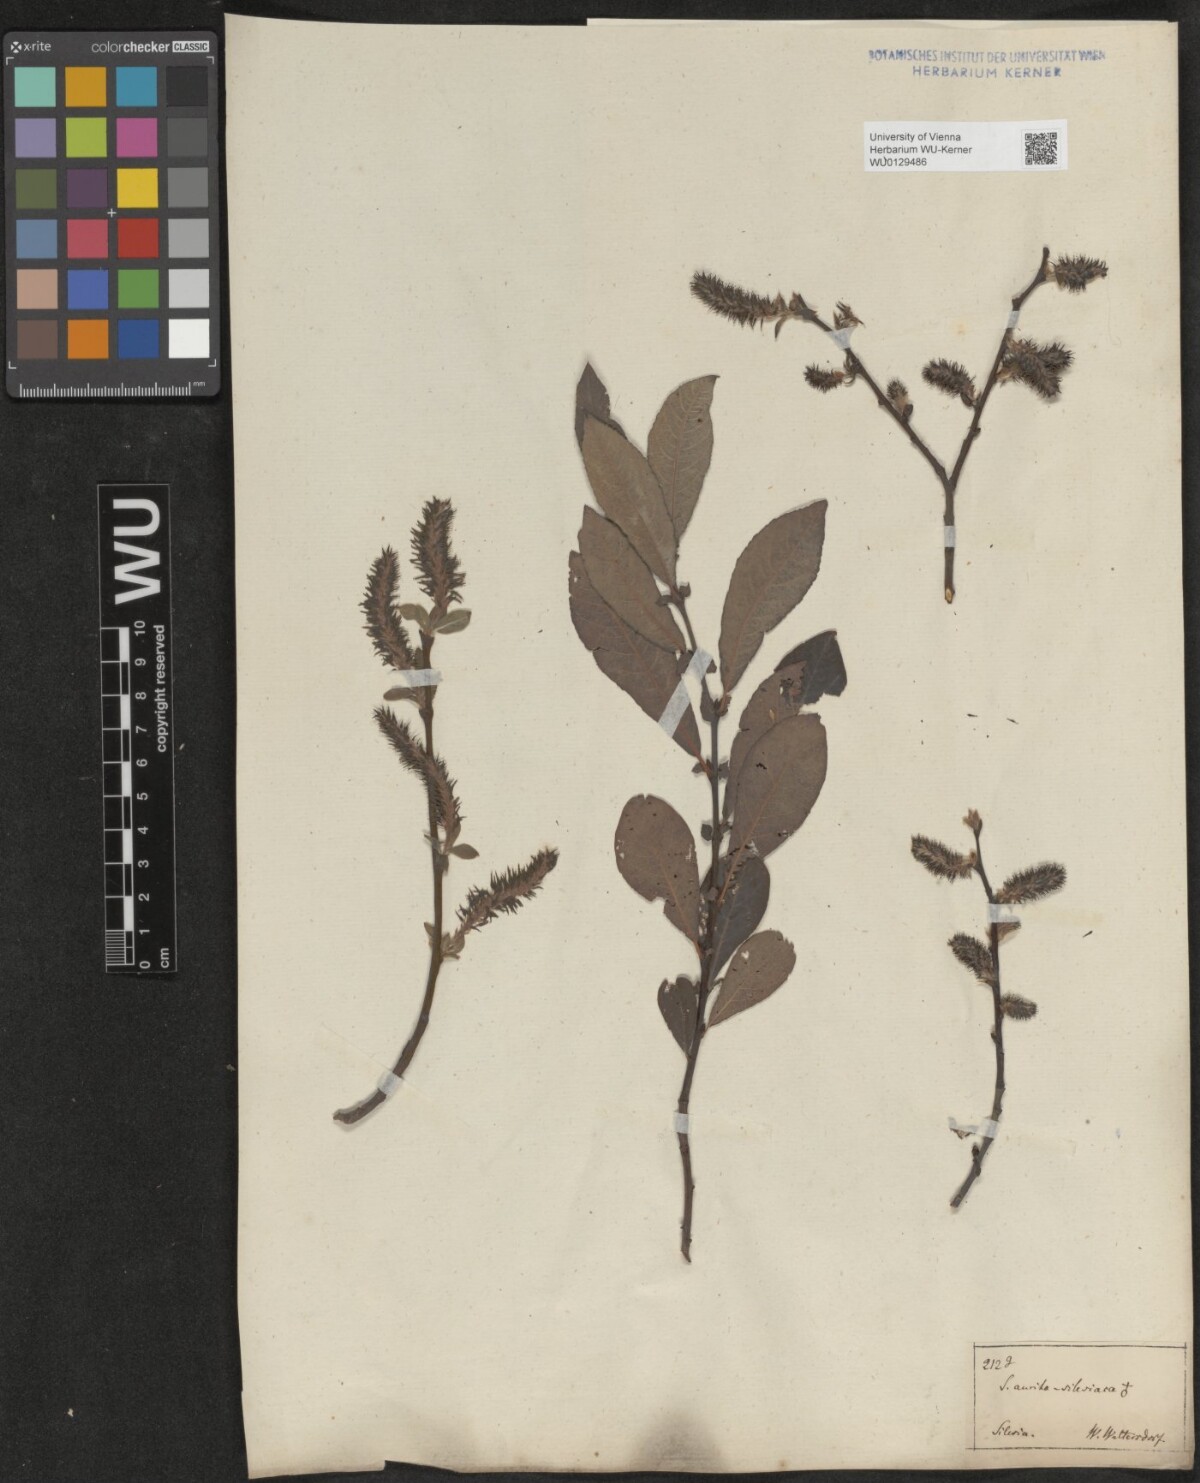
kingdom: Plantae
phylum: Tracheophyta
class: Magnoliopsida
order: Malpighiales
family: Salicaceae
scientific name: Salicaceae
